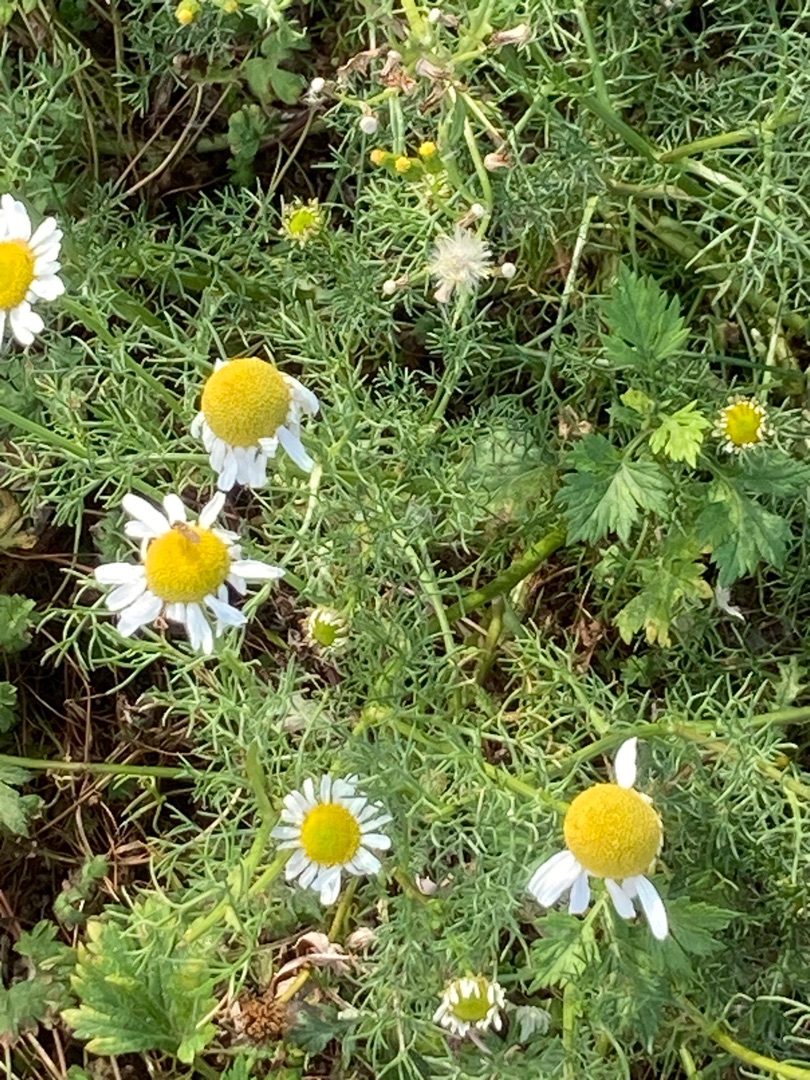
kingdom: Plantae
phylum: Tracheophyta
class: Magnoliopsida
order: Asterales
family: Asteraceae
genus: Tripleurospermum
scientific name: Tripleurospermum maritimum
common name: Strand-kamille
